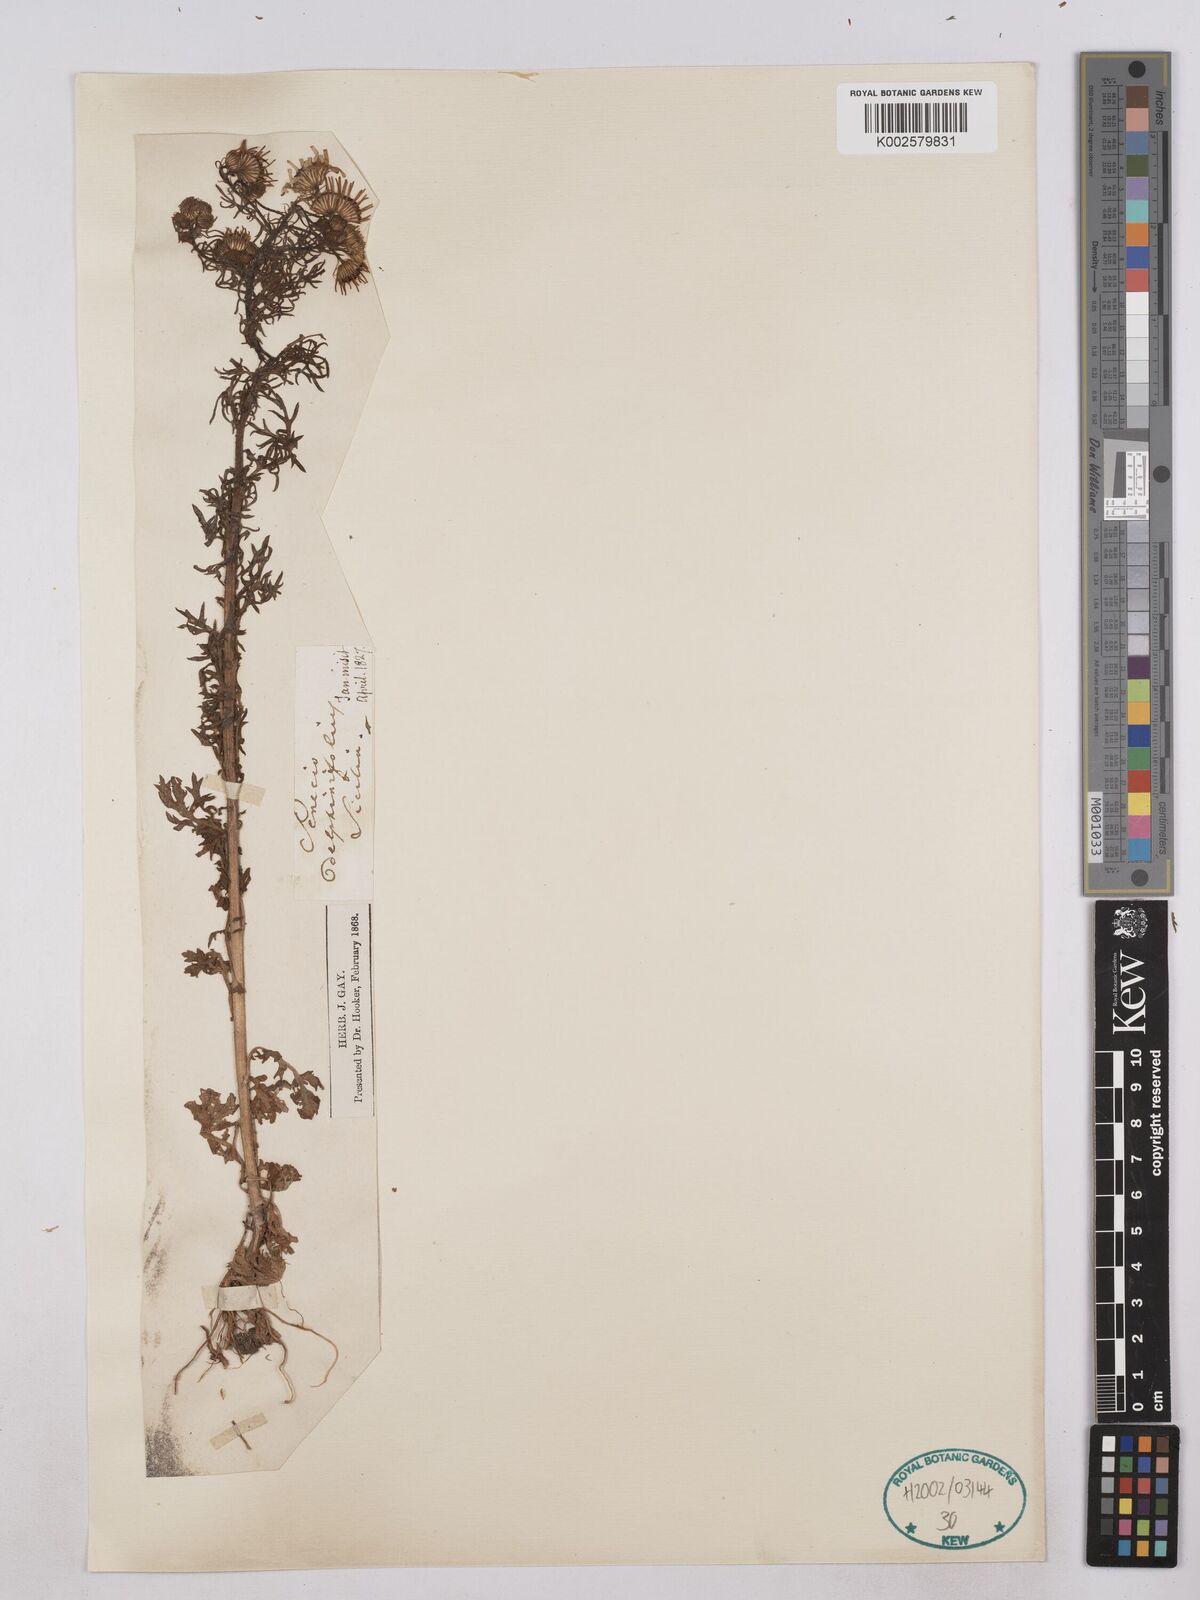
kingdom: Plantae
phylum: Tracheophyta
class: Magnoliopsida
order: Asterales
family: Asteraceae
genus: Jacobaea
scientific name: Jacobaea erucifolia
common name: Hoary ragwort
